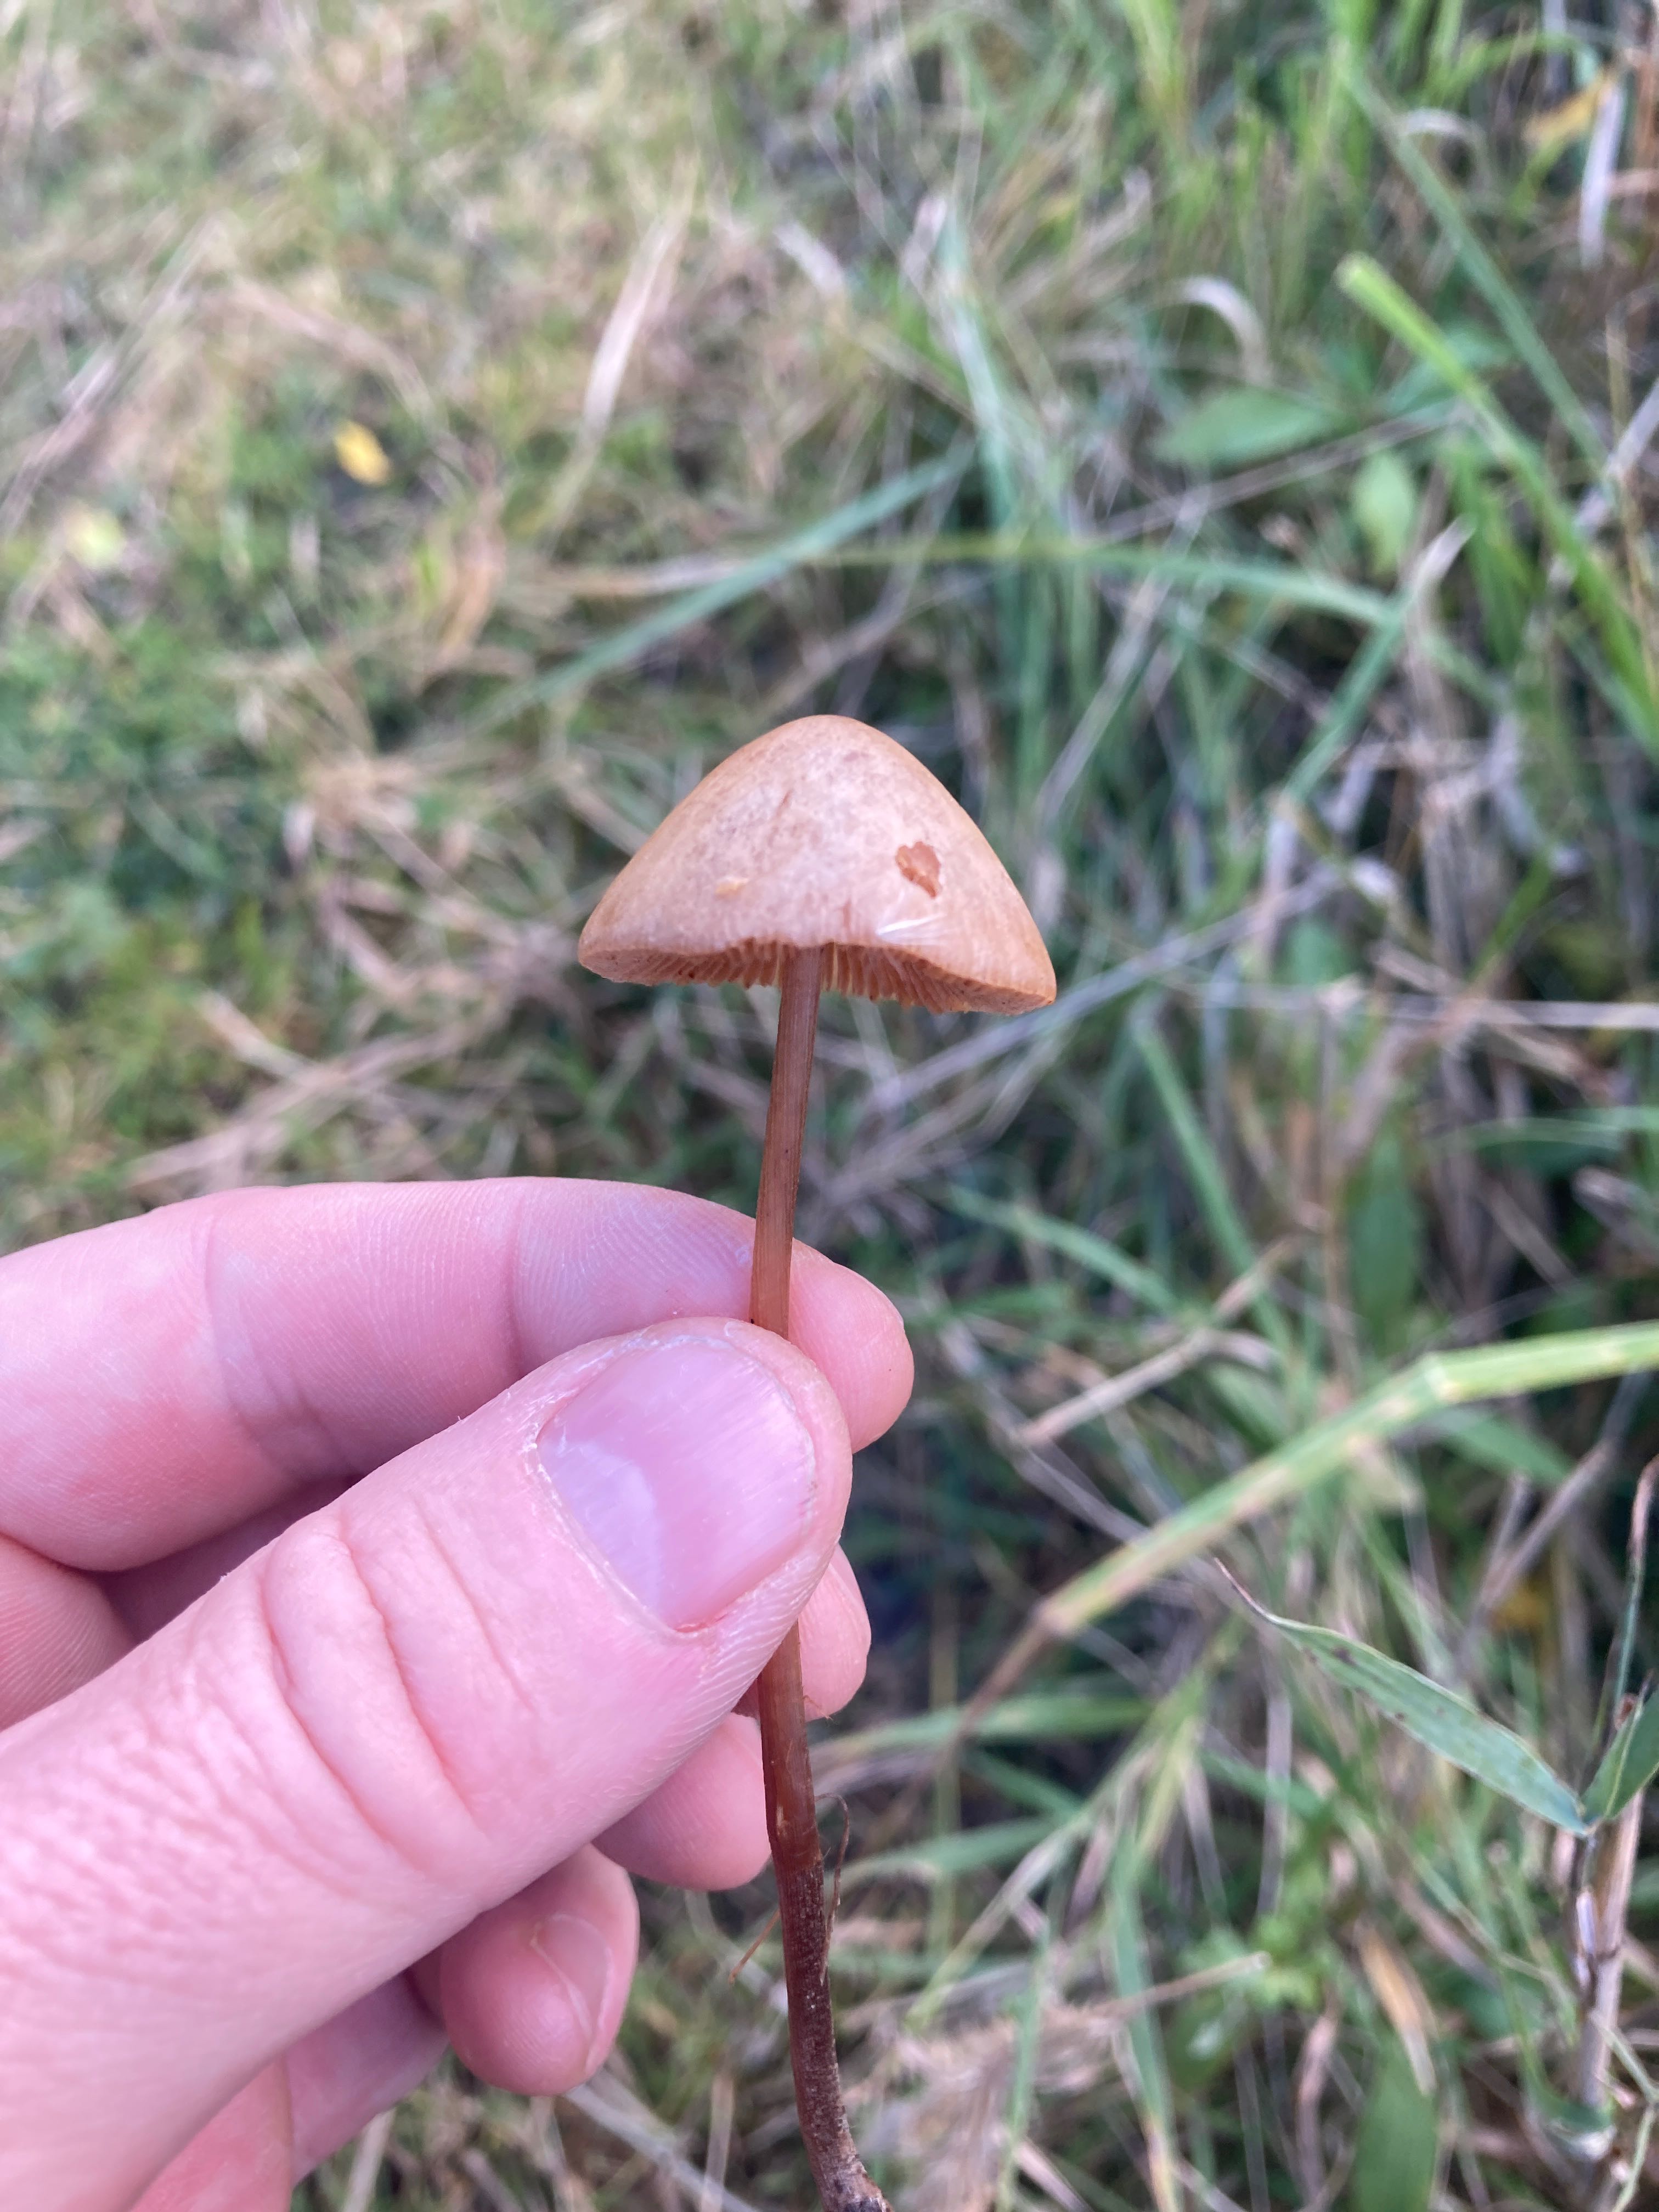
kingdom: Fungi
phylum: Basidiomycota
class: Agaricomycetes
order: Agaricales
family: Bolbitiaceae
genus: Conocybe
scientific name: Conocybe
